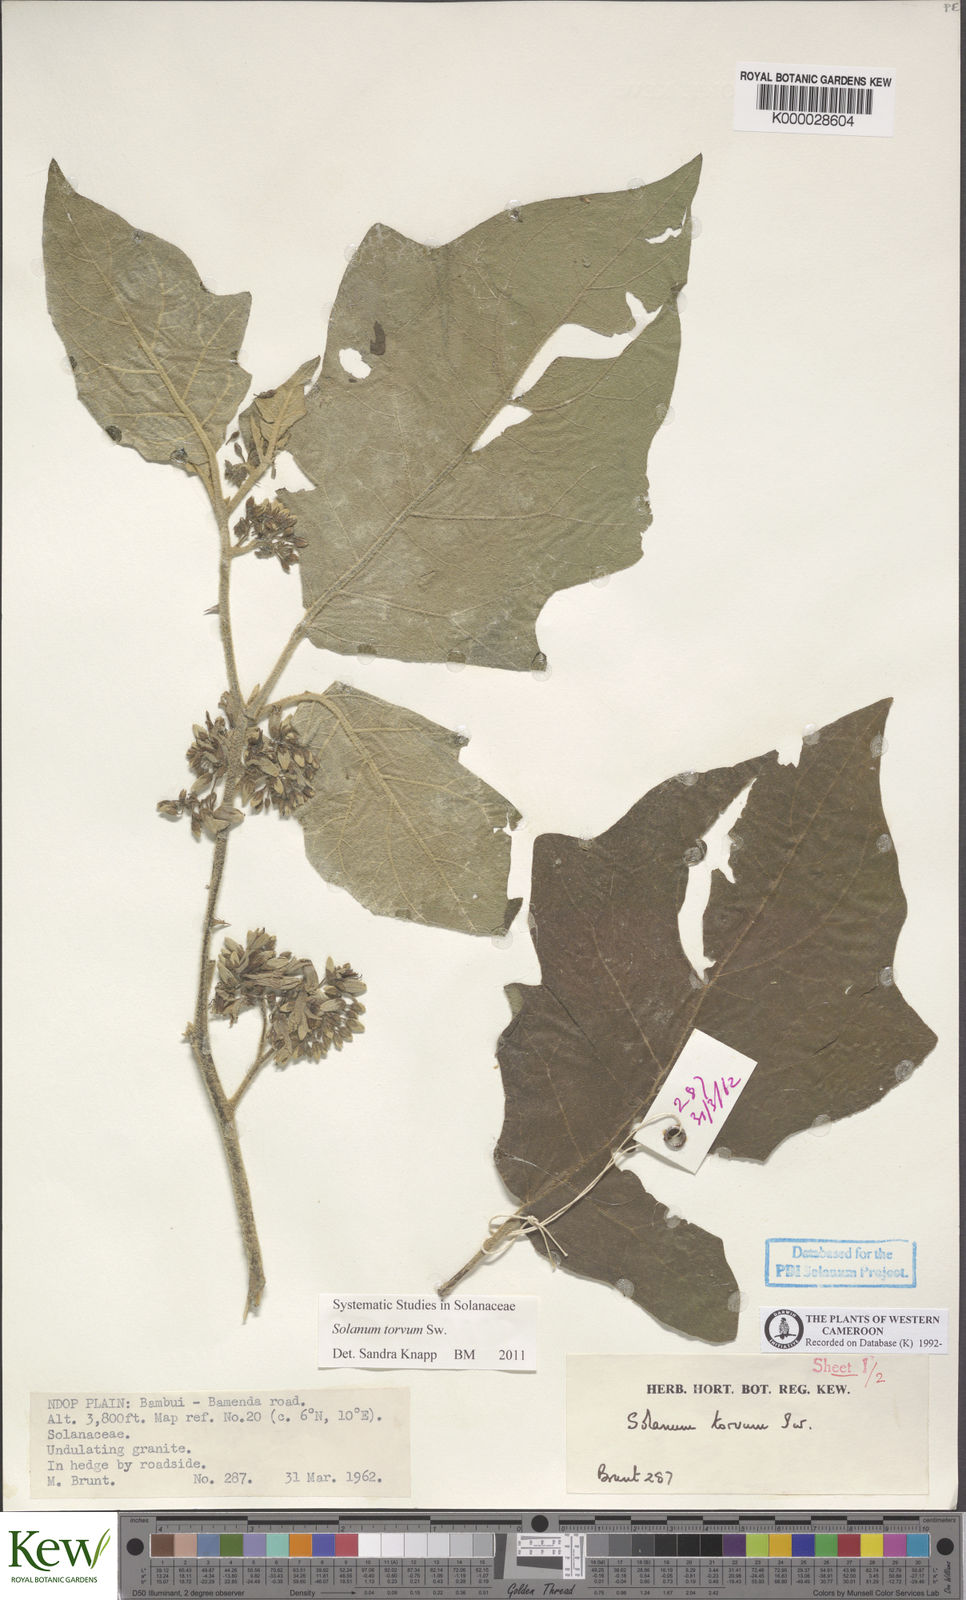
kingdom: Plantae
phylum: Tracheophyta
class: Magnoliopsida
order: Solanales
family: Solanaceae
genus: Solanum
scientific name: Solanum torvum
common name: Turkey berry
